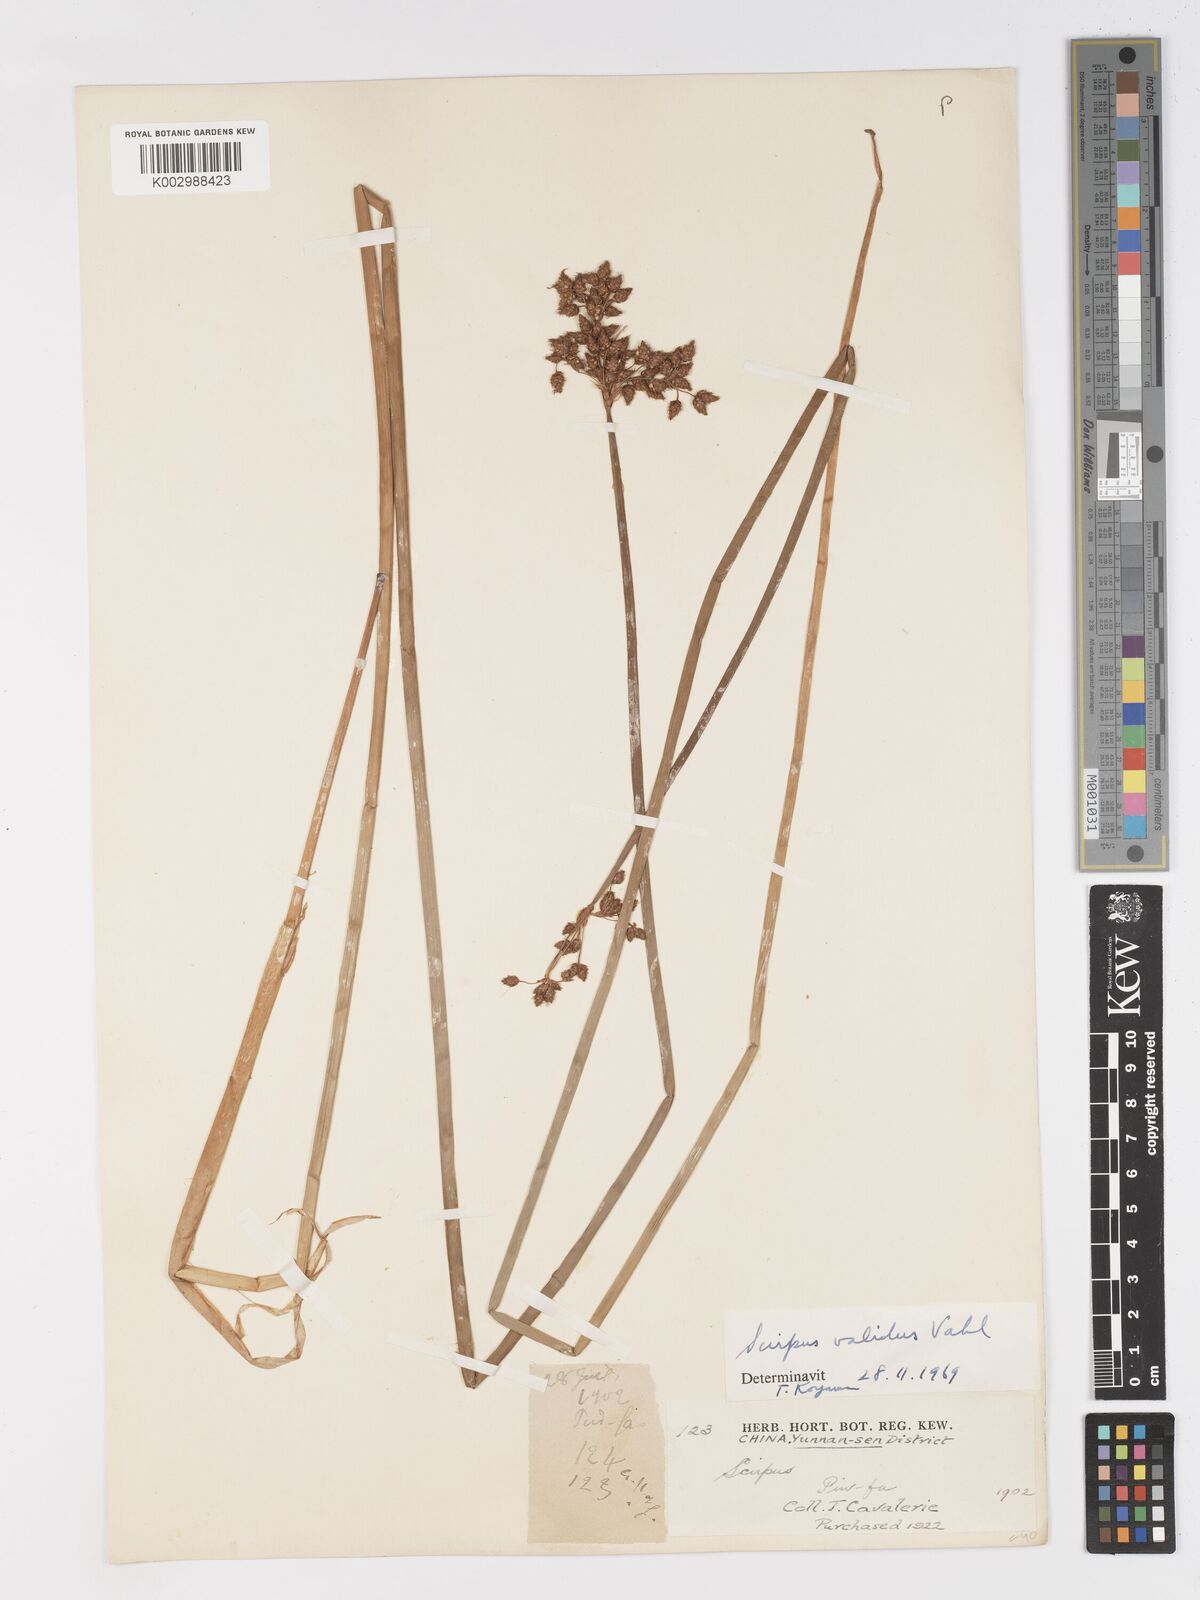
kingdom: Plantae
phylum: Tracheophyta
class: Liliopsida
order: Poales
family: Cyperaceae
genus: Schoenoplectus
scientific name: Schoenoplectus lacustris
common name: Common club-rush
